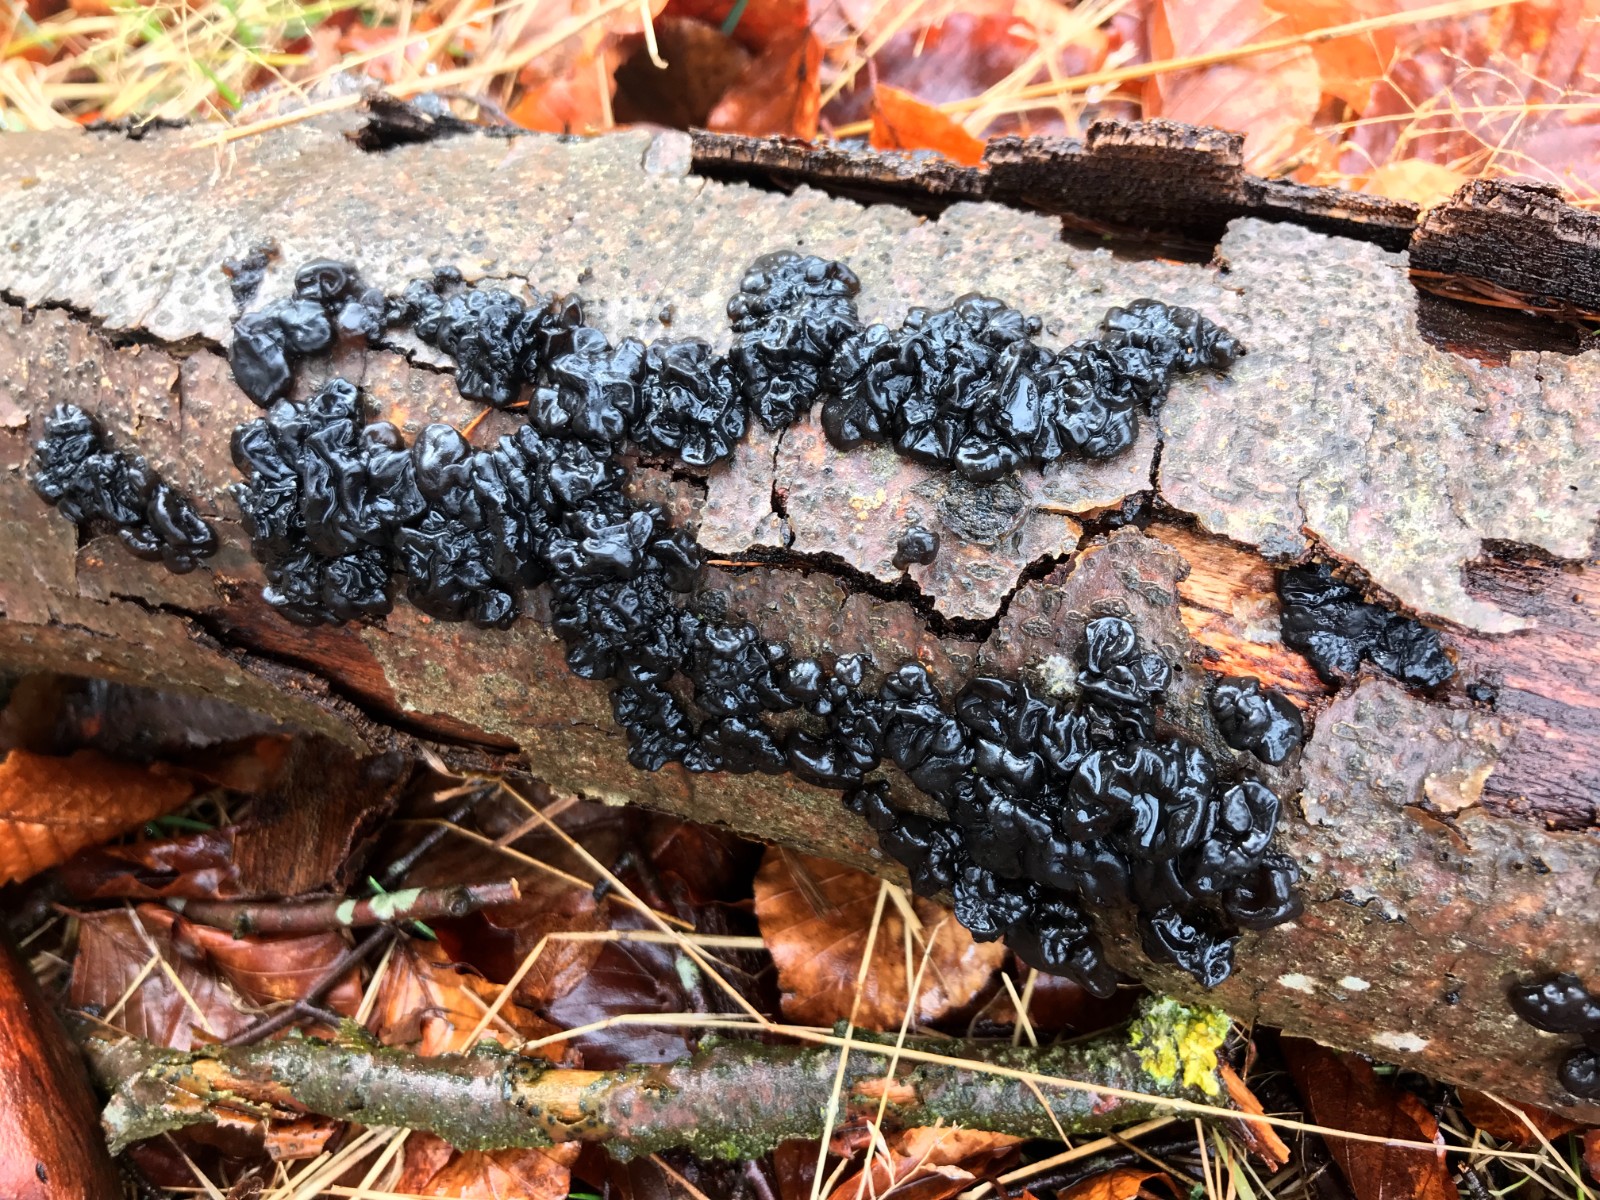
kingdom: Fungi
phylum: Basidiomycota
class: Agaricomycetes
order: Auriculariales
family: Auriculariaceae
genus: Exidia
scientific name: Exidia nigricans
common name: almindelig bævretop
